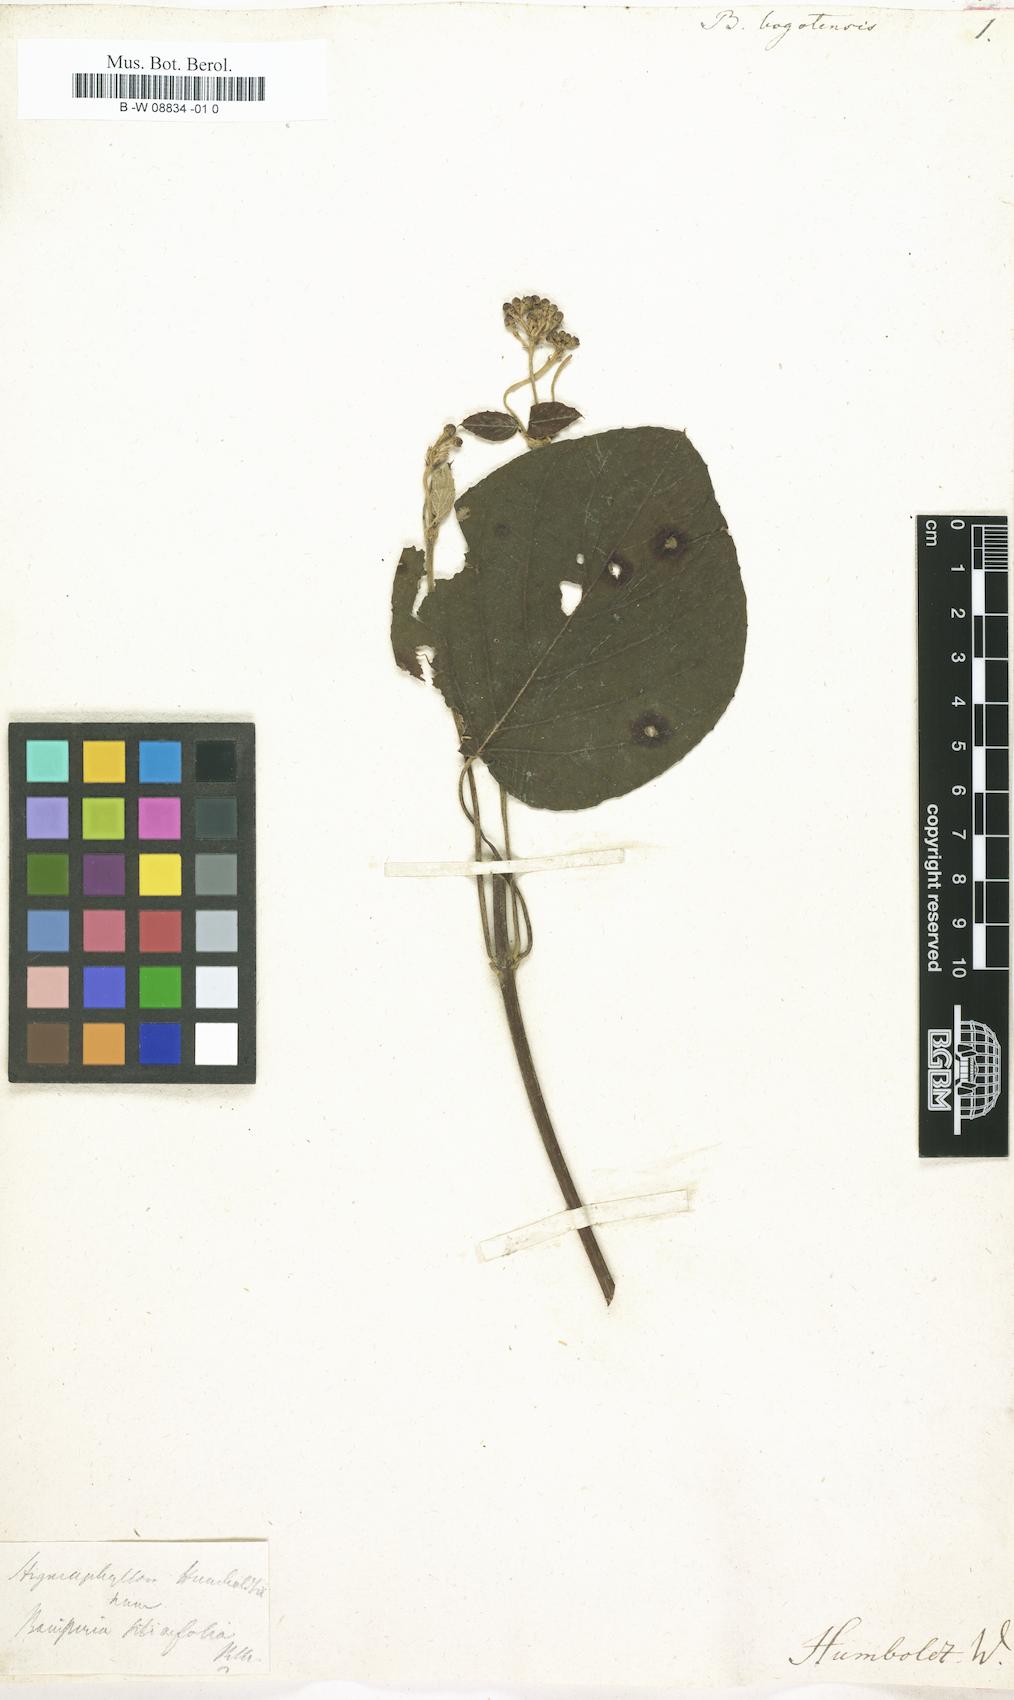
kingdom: Plantae
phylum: Tracheophyta
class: Magnoliopsida
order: Malpighiales
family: Malpighiaceae
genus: Stigmaphyllon
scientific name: Stigmaphyllon bogotense
